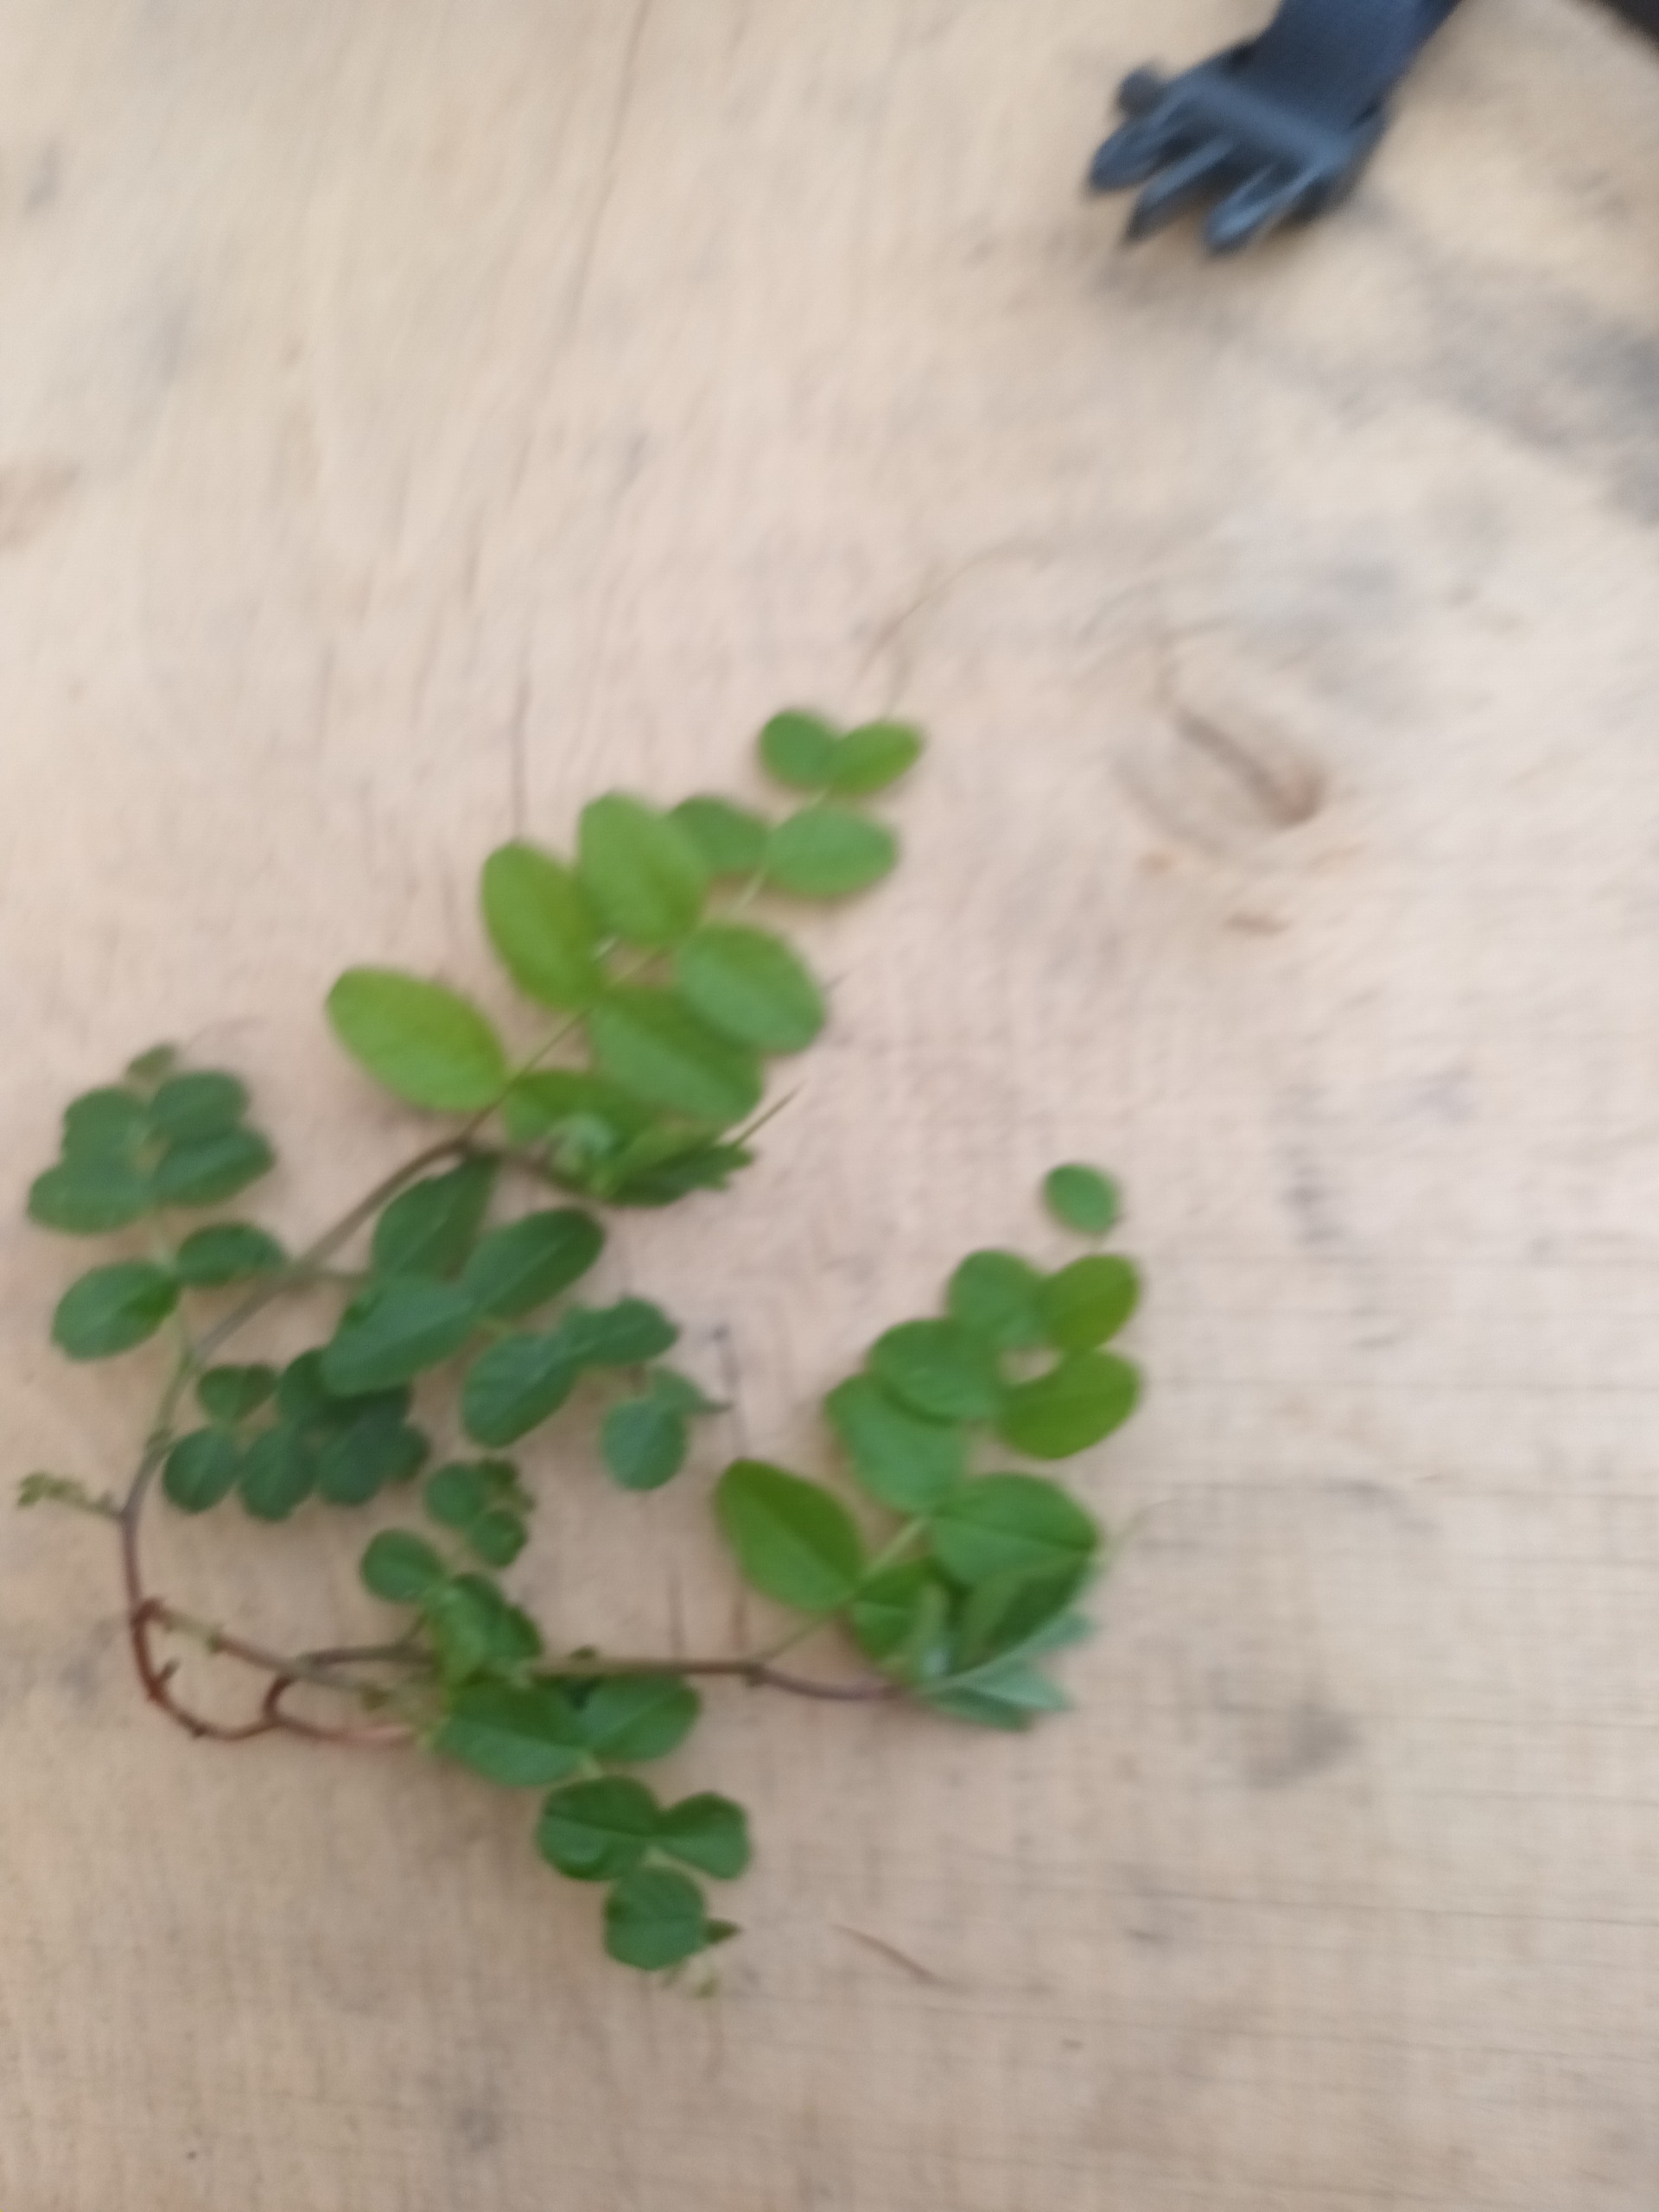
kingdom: Plantae
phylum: Tracheophyta
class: Magnoliopsida
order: Fabales
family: Fabaceae
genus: Vicia
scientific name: Vicia dumetorum
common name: Krat-vikke
